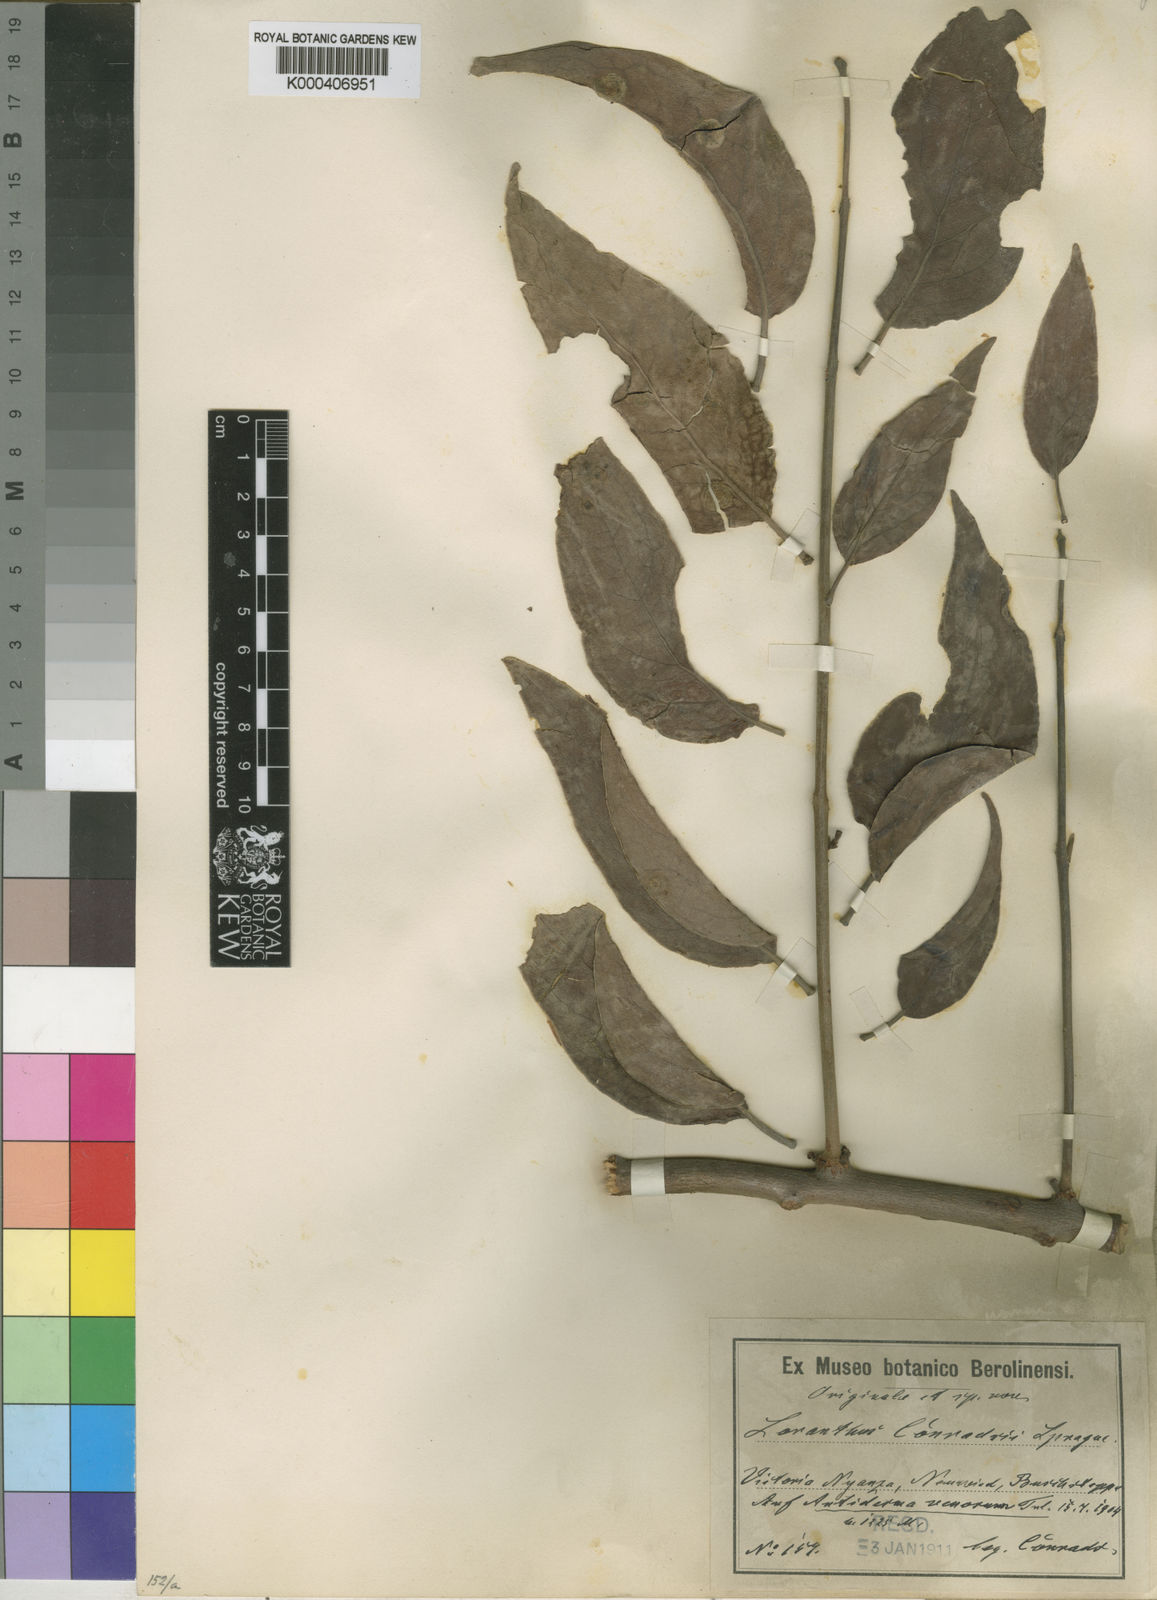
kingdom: Plantae
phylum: Tracheophyta
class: Magnoliopsida
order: Santalales
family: Loranthaceae
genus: Tapinanthus
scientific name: Tapinanthus buvumae
